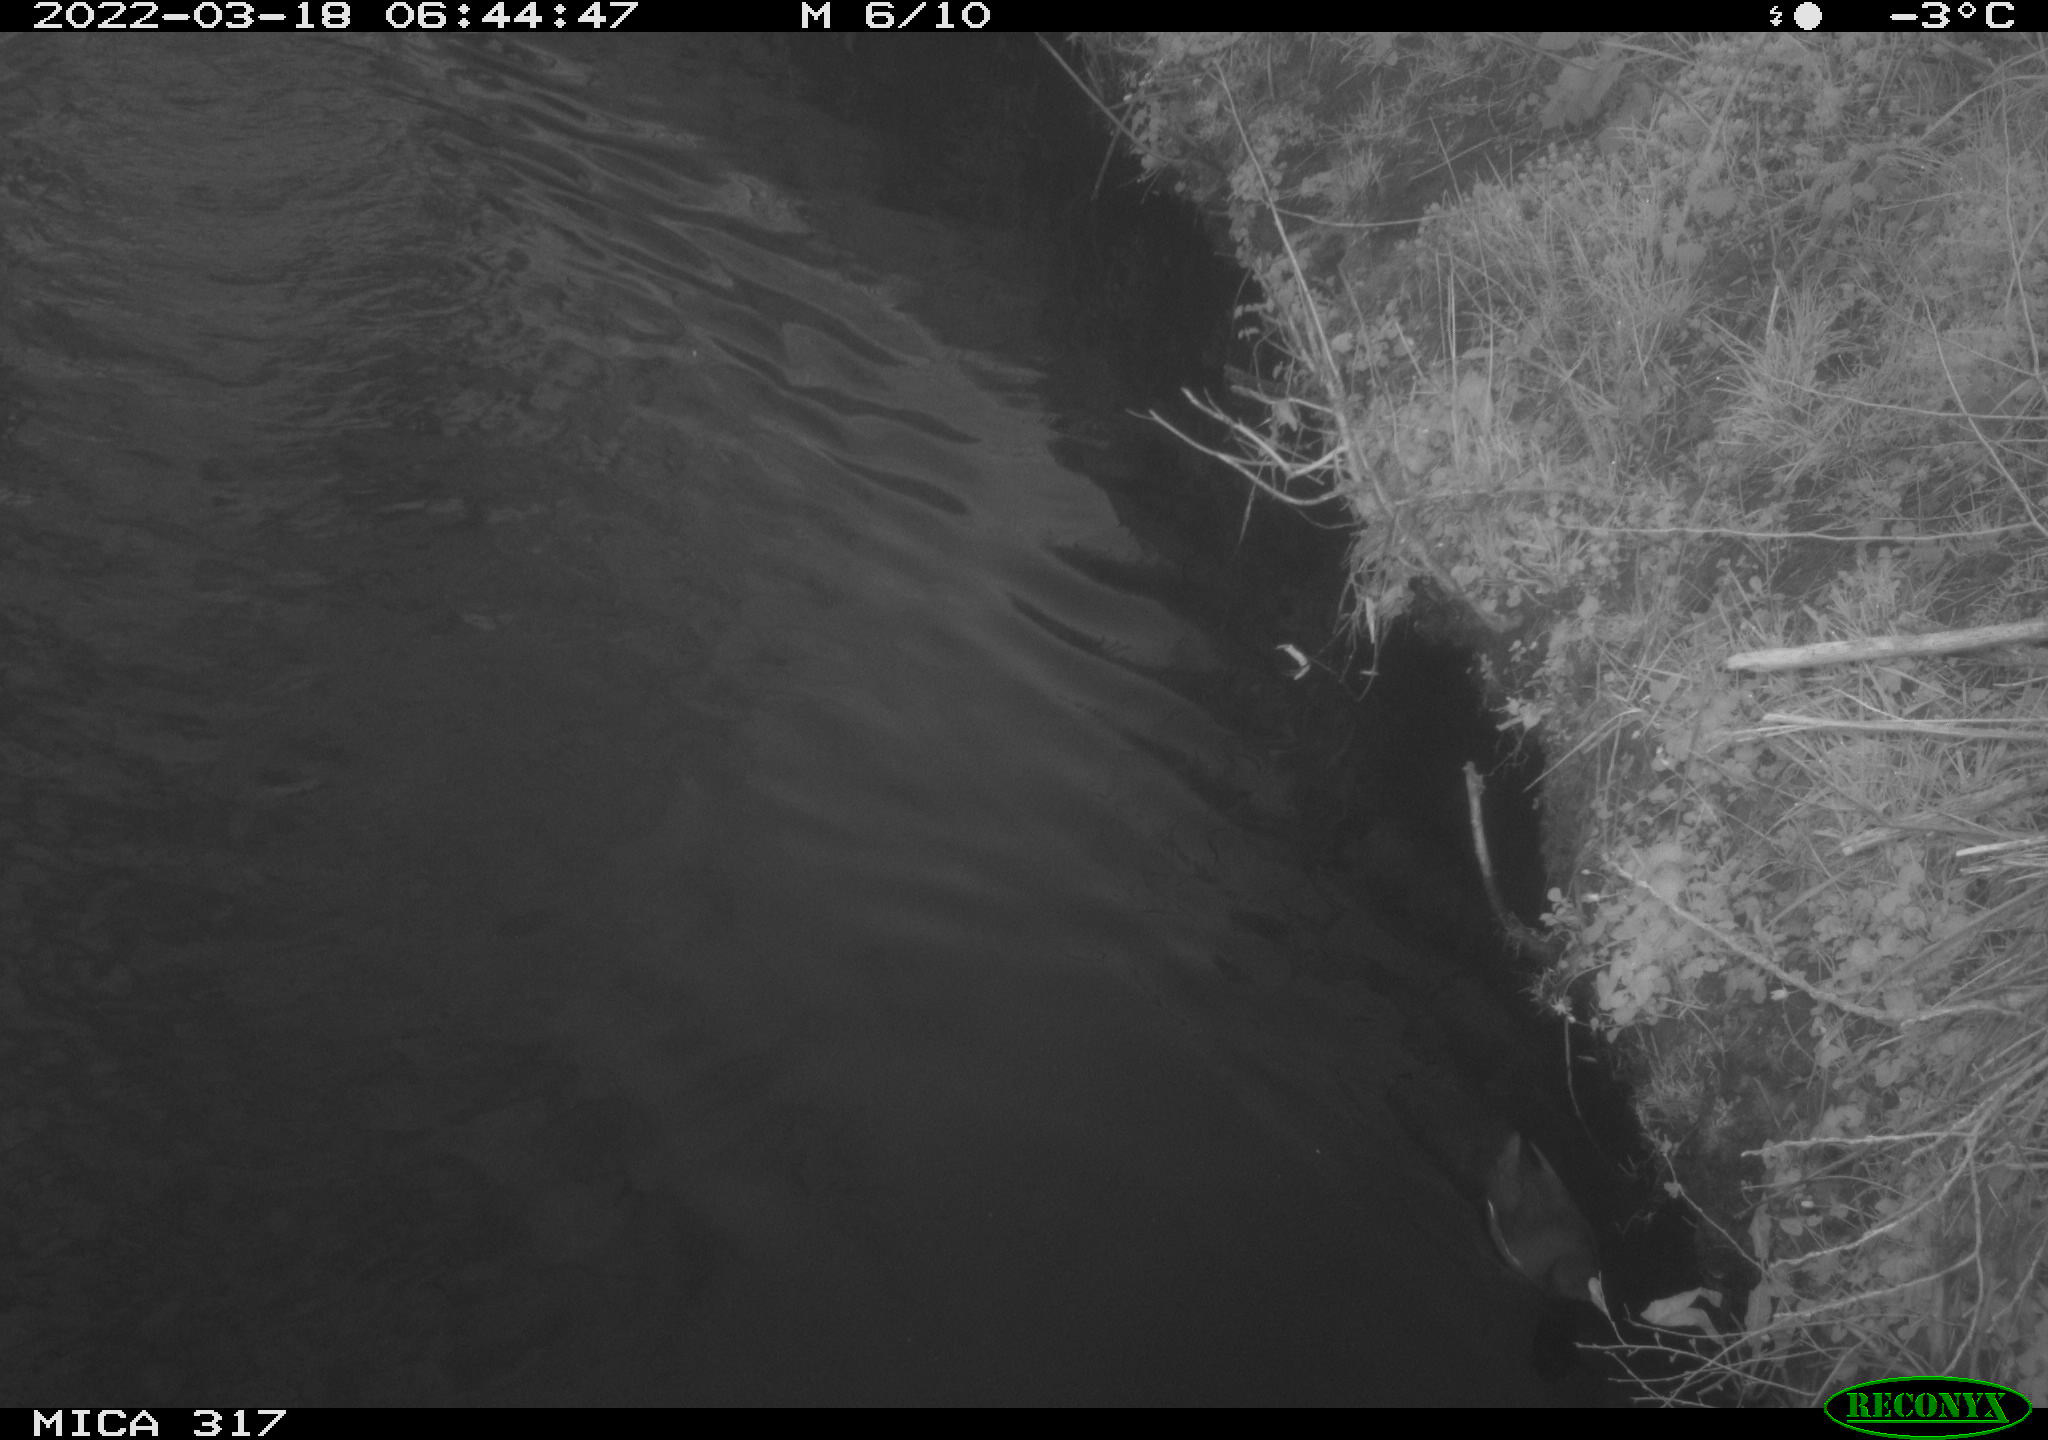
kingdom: Animalia
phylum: Chordata
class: Aves
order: Gruiformes
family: Rallidae
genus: Gallinula
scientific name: Gallinula chloropus
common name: Common moorhen
